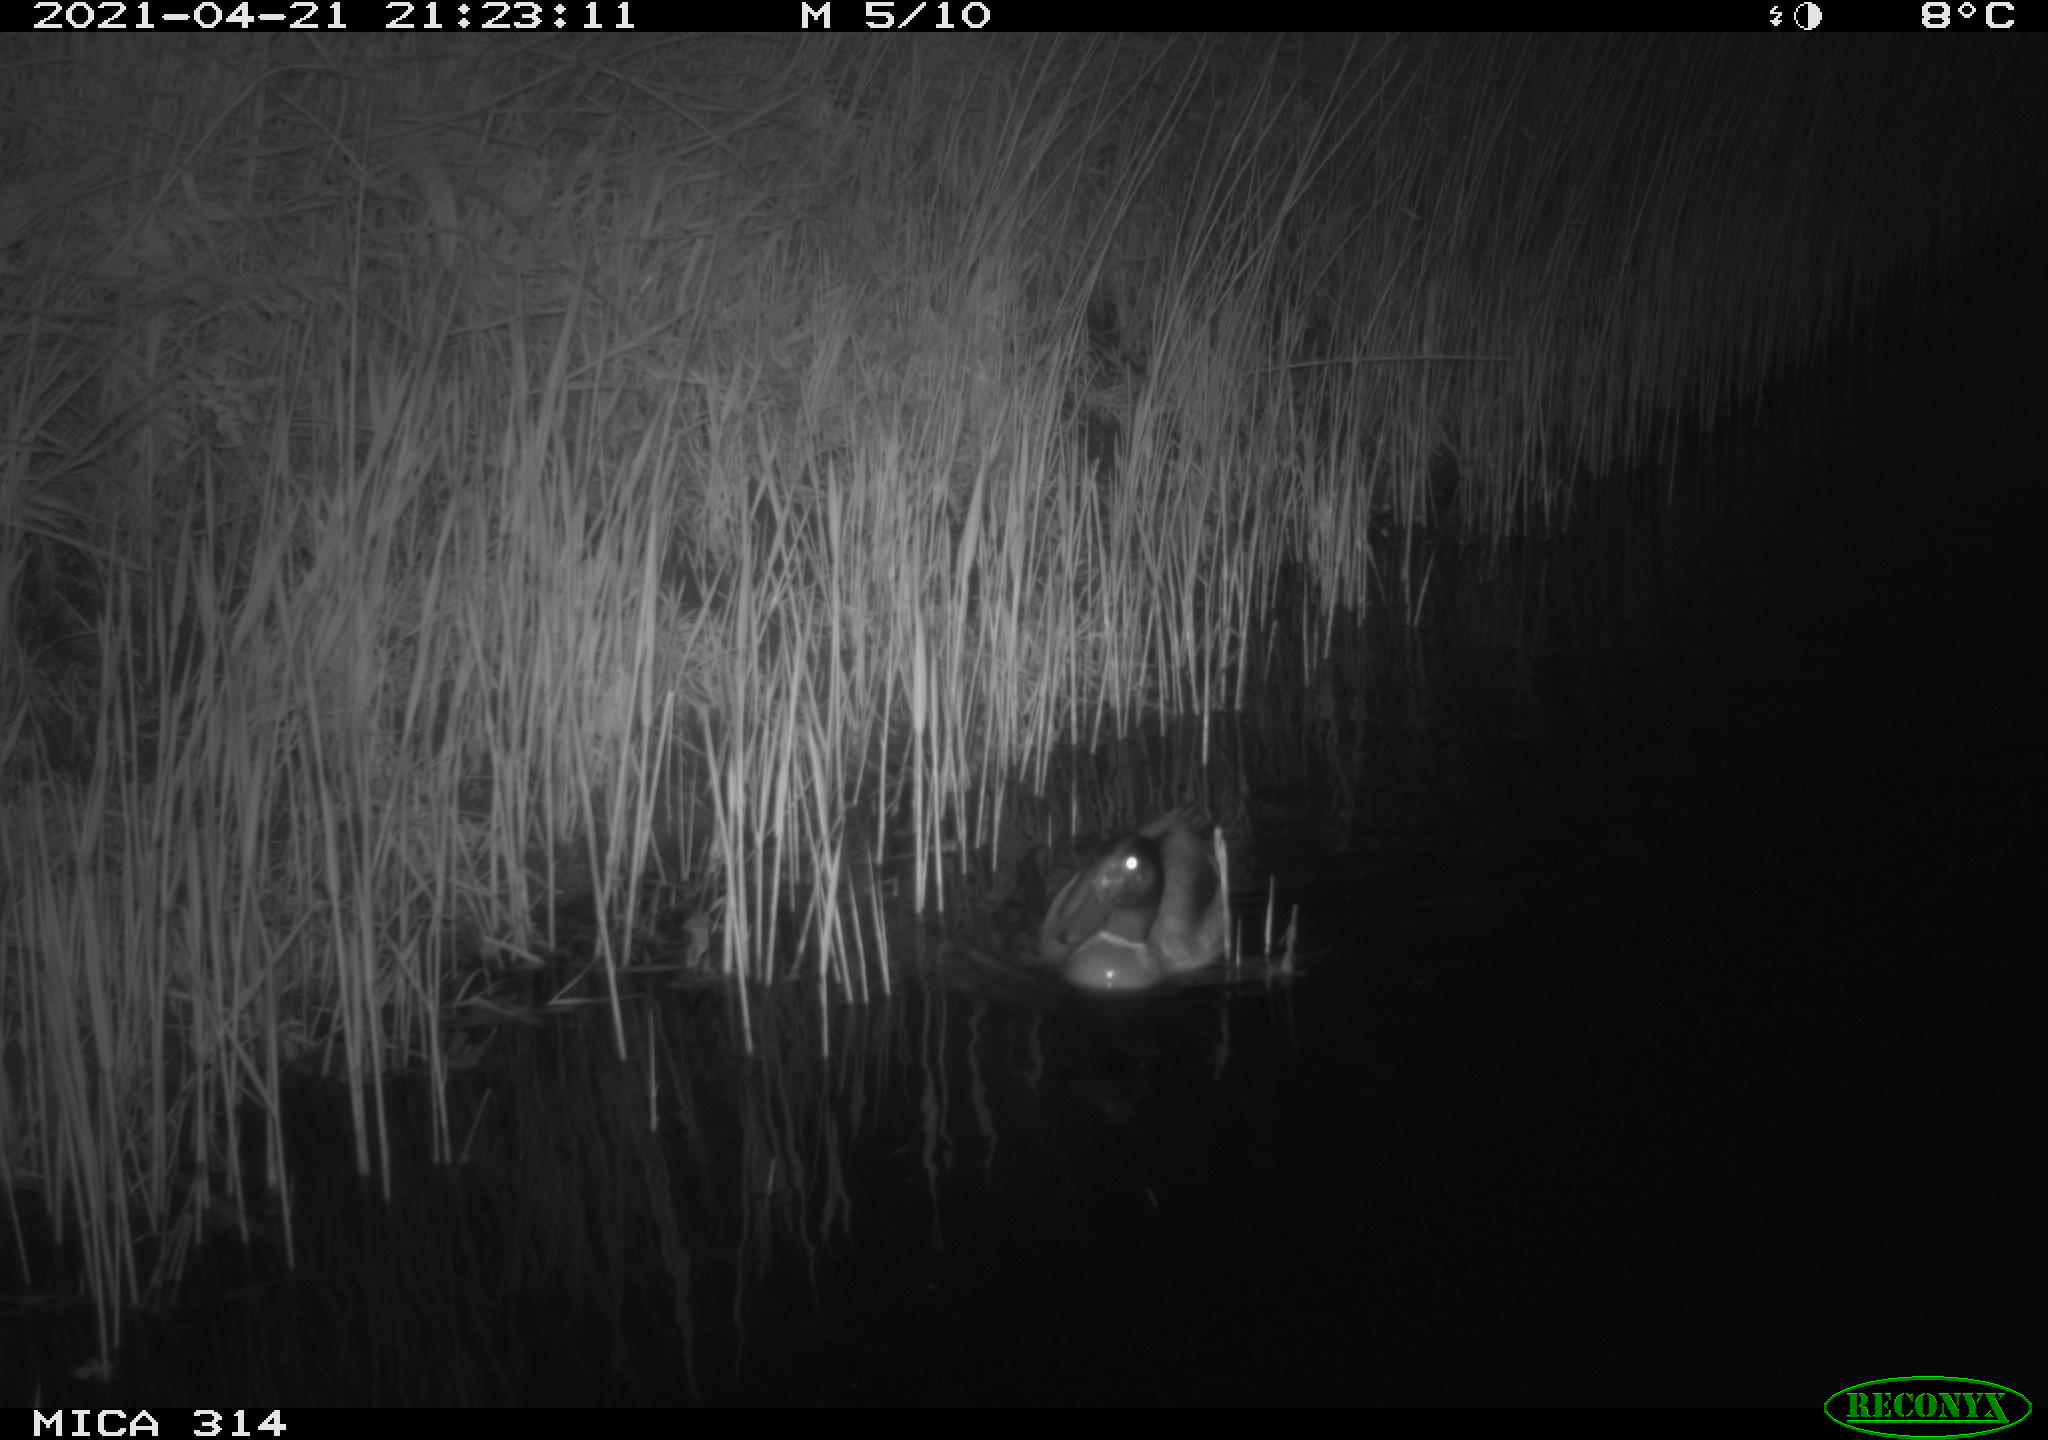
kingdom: Animalia
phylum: Chordata
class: Aves
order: Anseriformes
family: Anatidae
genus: Anas
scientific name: Anas platyrhynchos
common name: Mallard
